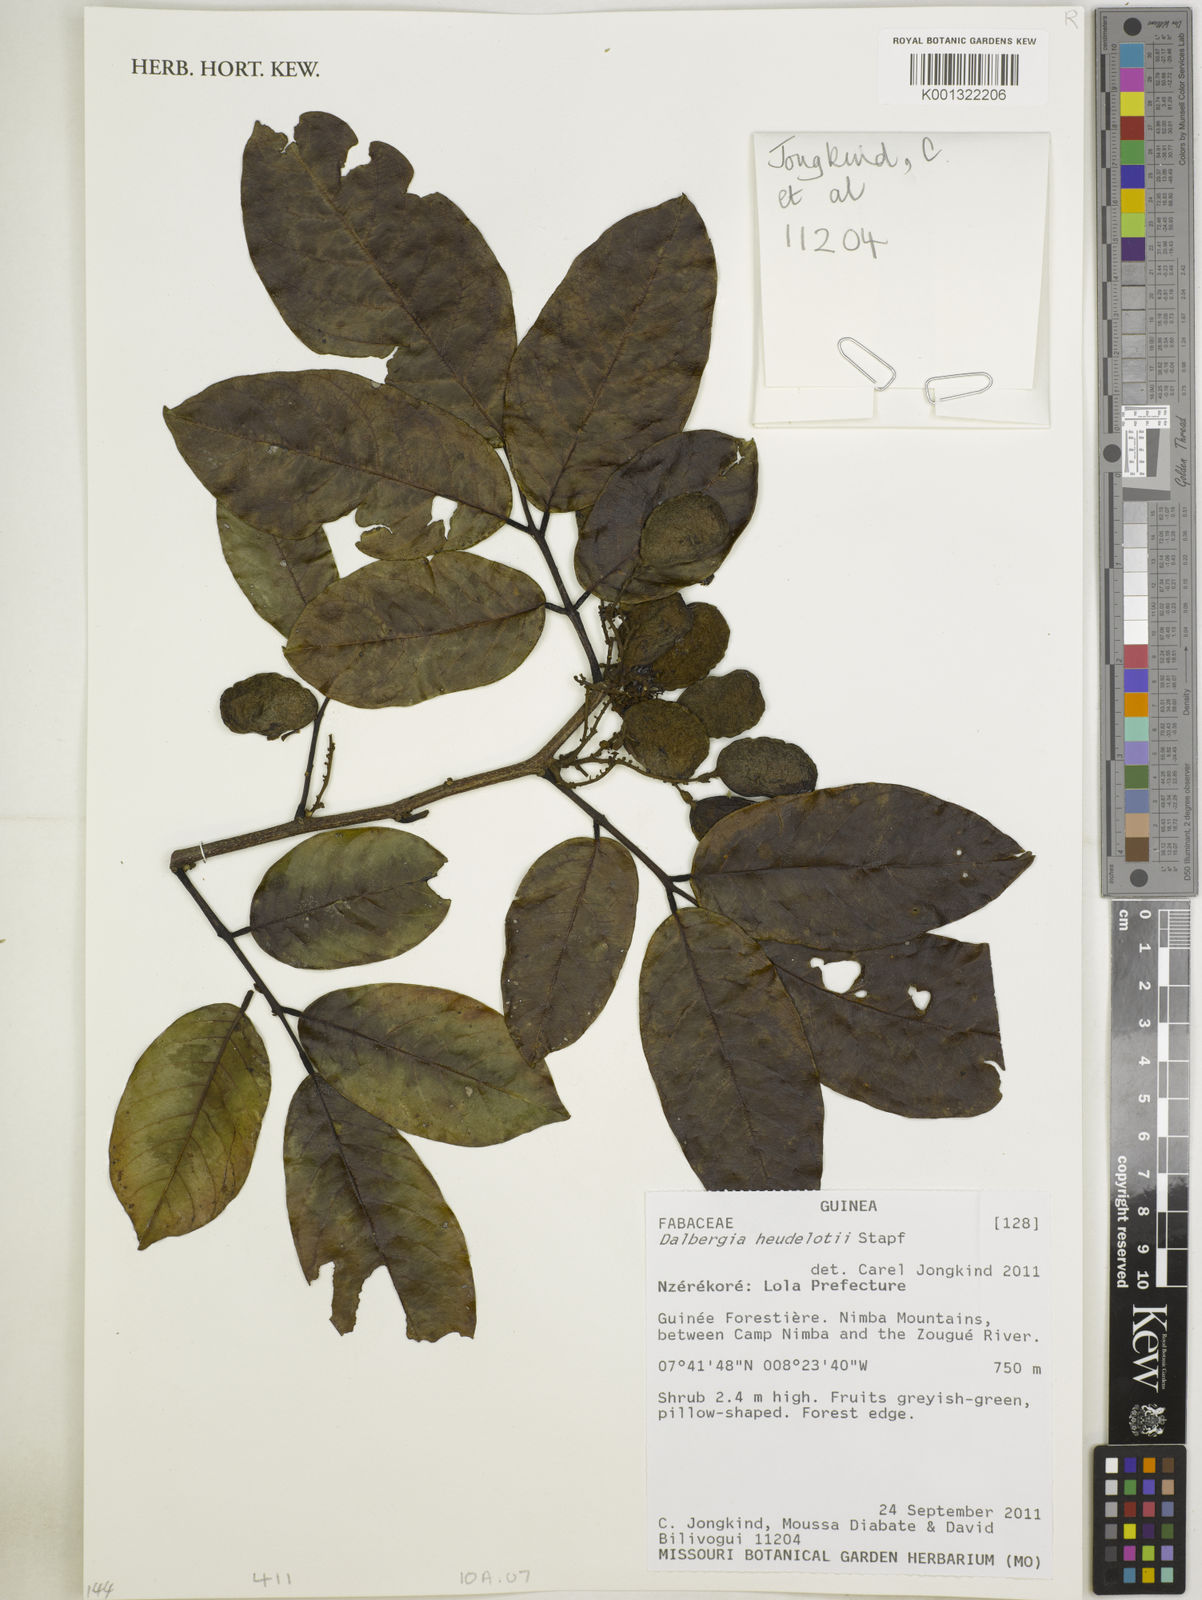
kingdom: Plantae
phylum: Tracheophyta
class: Magnoliopsida
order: Fabales
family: Fabaceae
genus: Dalbergia
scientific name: Dalbergia heudelotii
